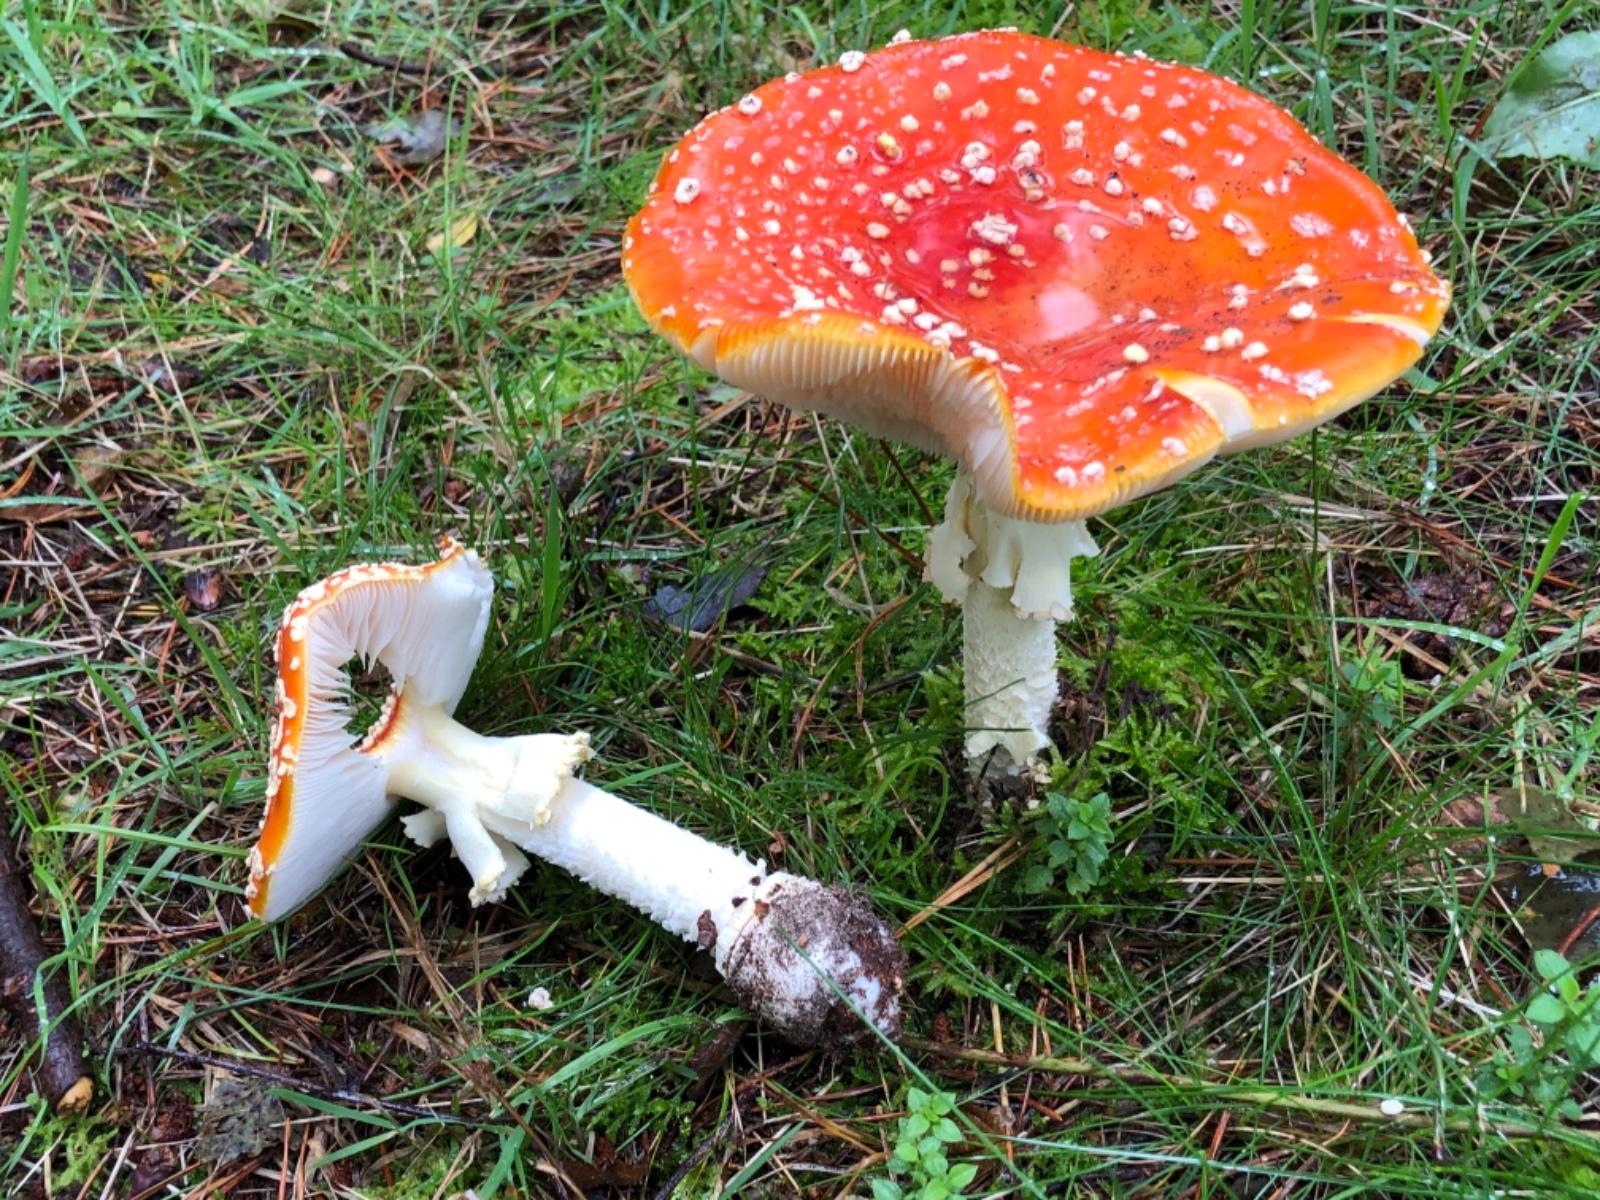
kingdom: Fungi
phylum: Basidiomycota
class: Agaricomycetes
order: Agaricales
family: Amanitaceae
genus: Amanita
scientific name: Amanita muscaria
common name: rød fluesvamp
